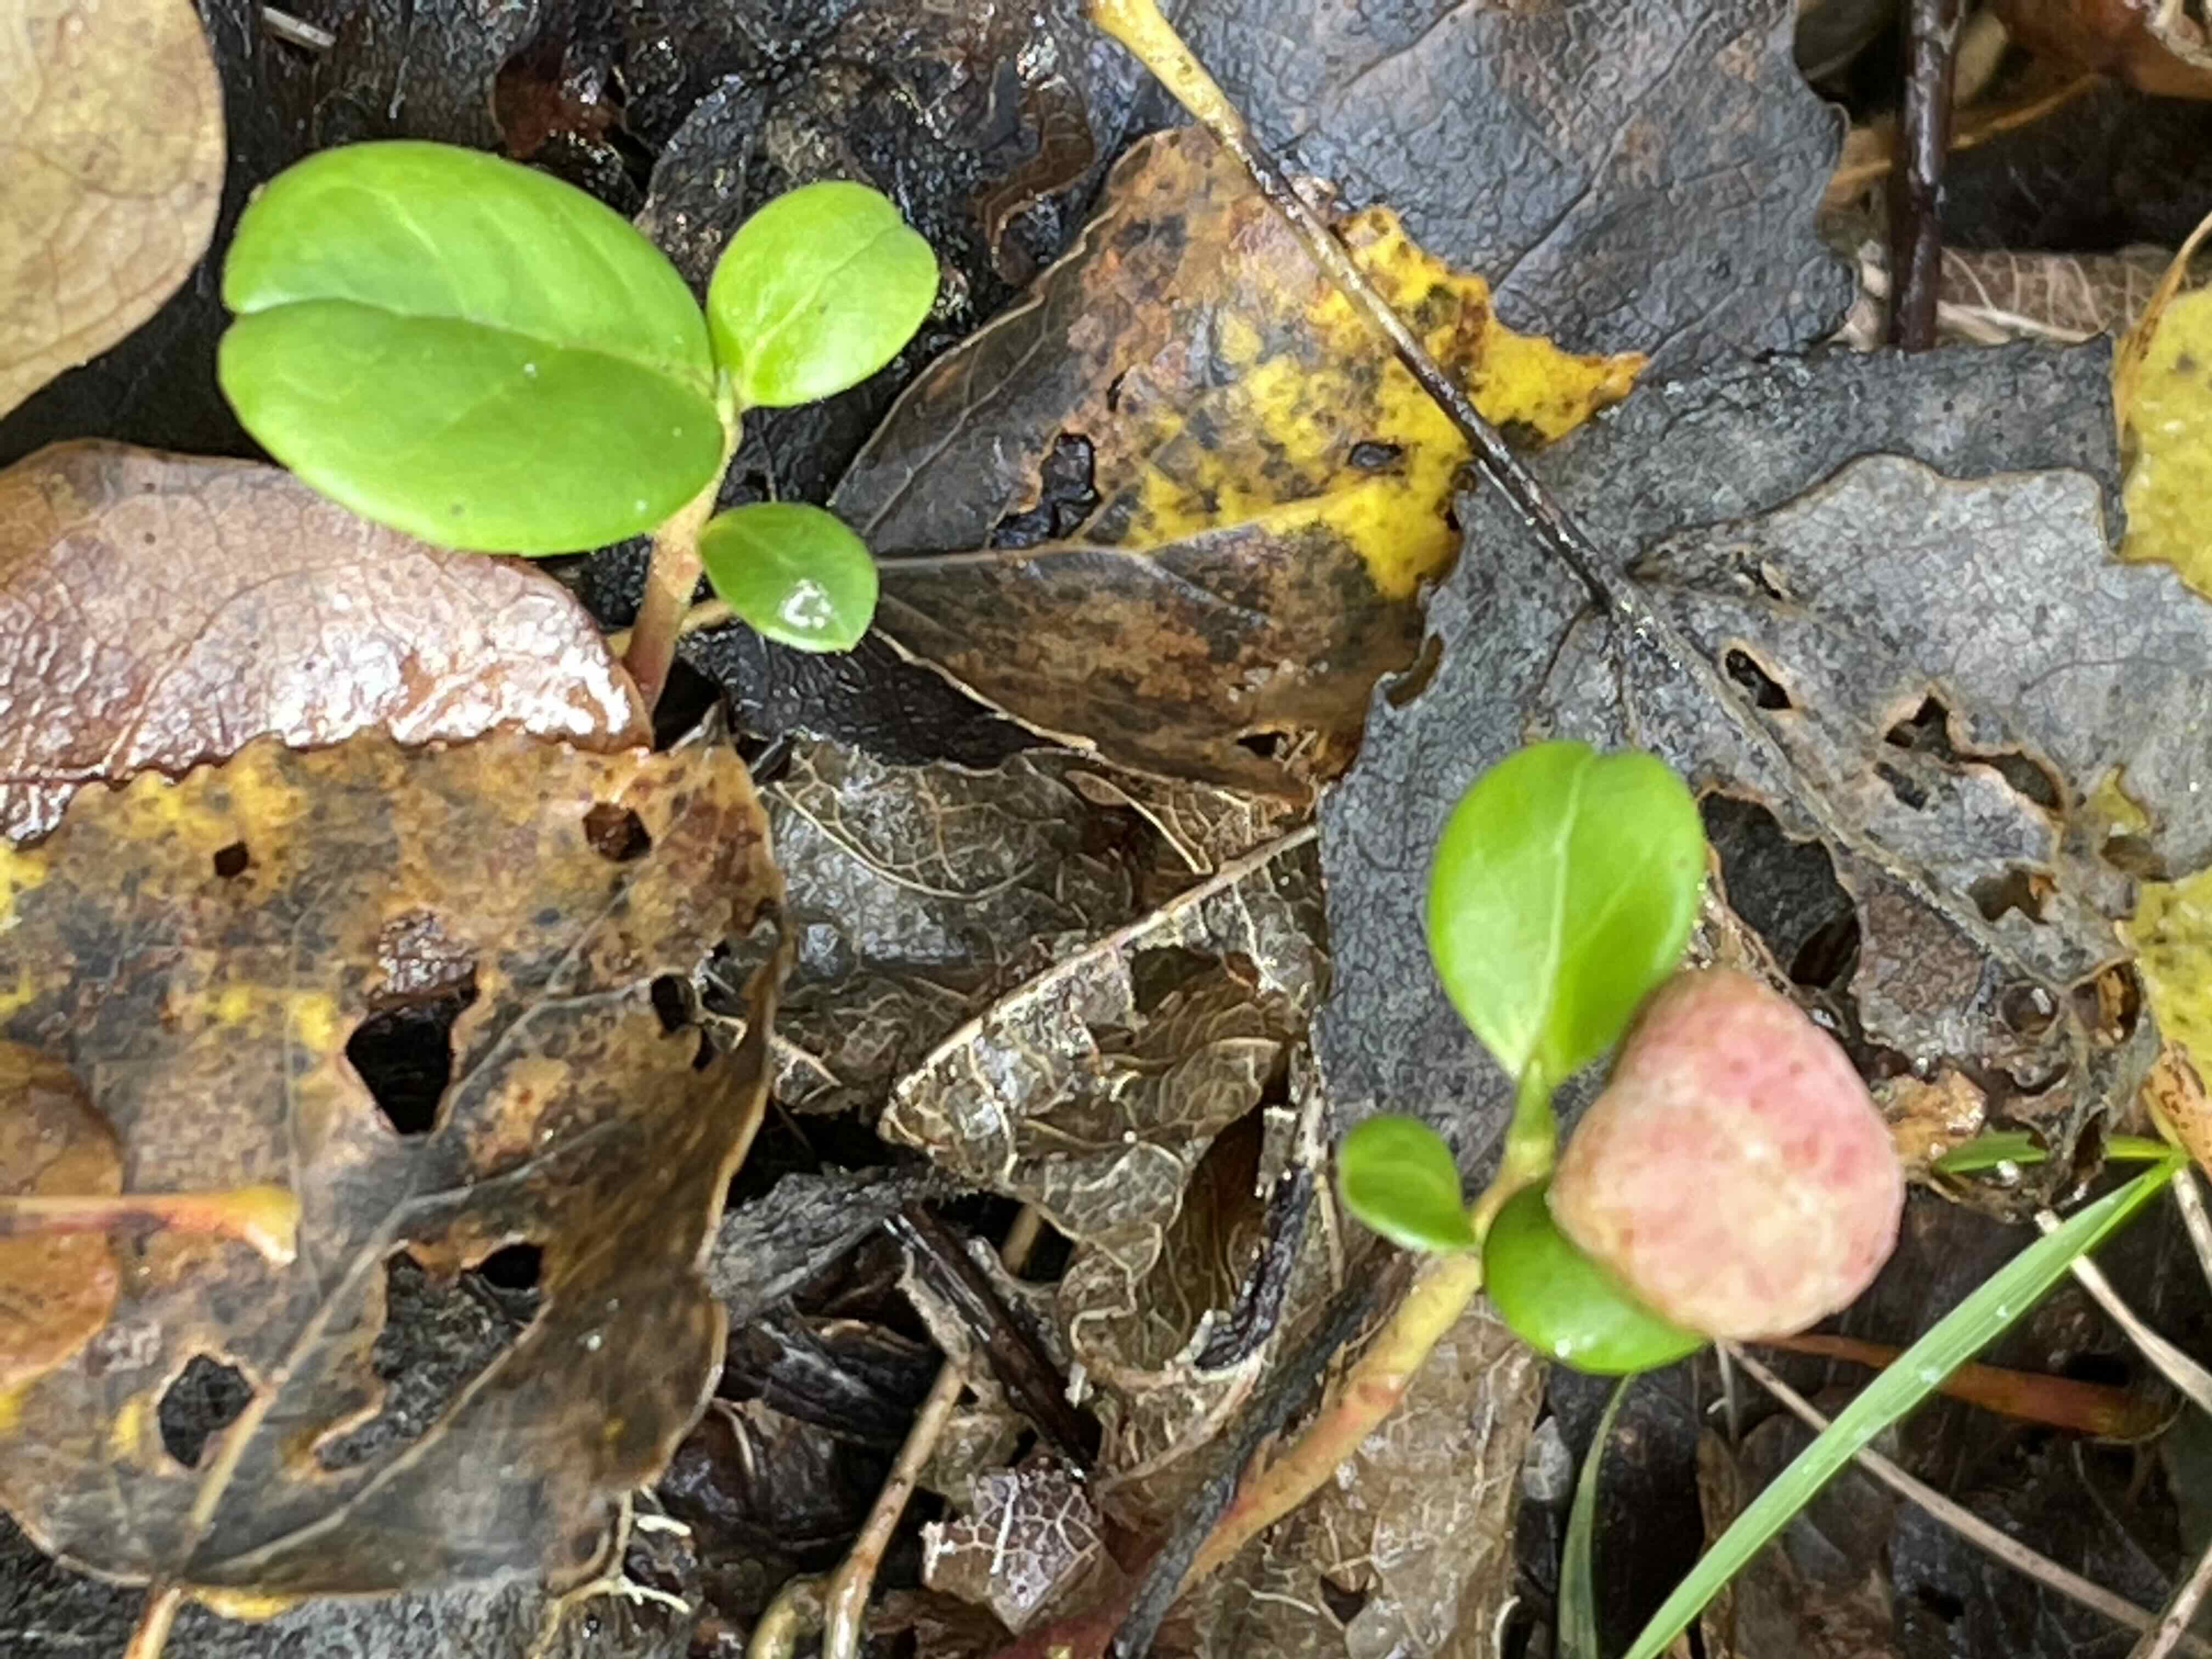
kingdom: Fungi
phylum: Basidiomycota
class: Exobasidiomycetes
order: Exobasidiales
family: Exobasidiaceae
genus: Exobasidium
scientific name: Exobasidium vaccinii
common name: tyttebærblad-bøllesvamp
